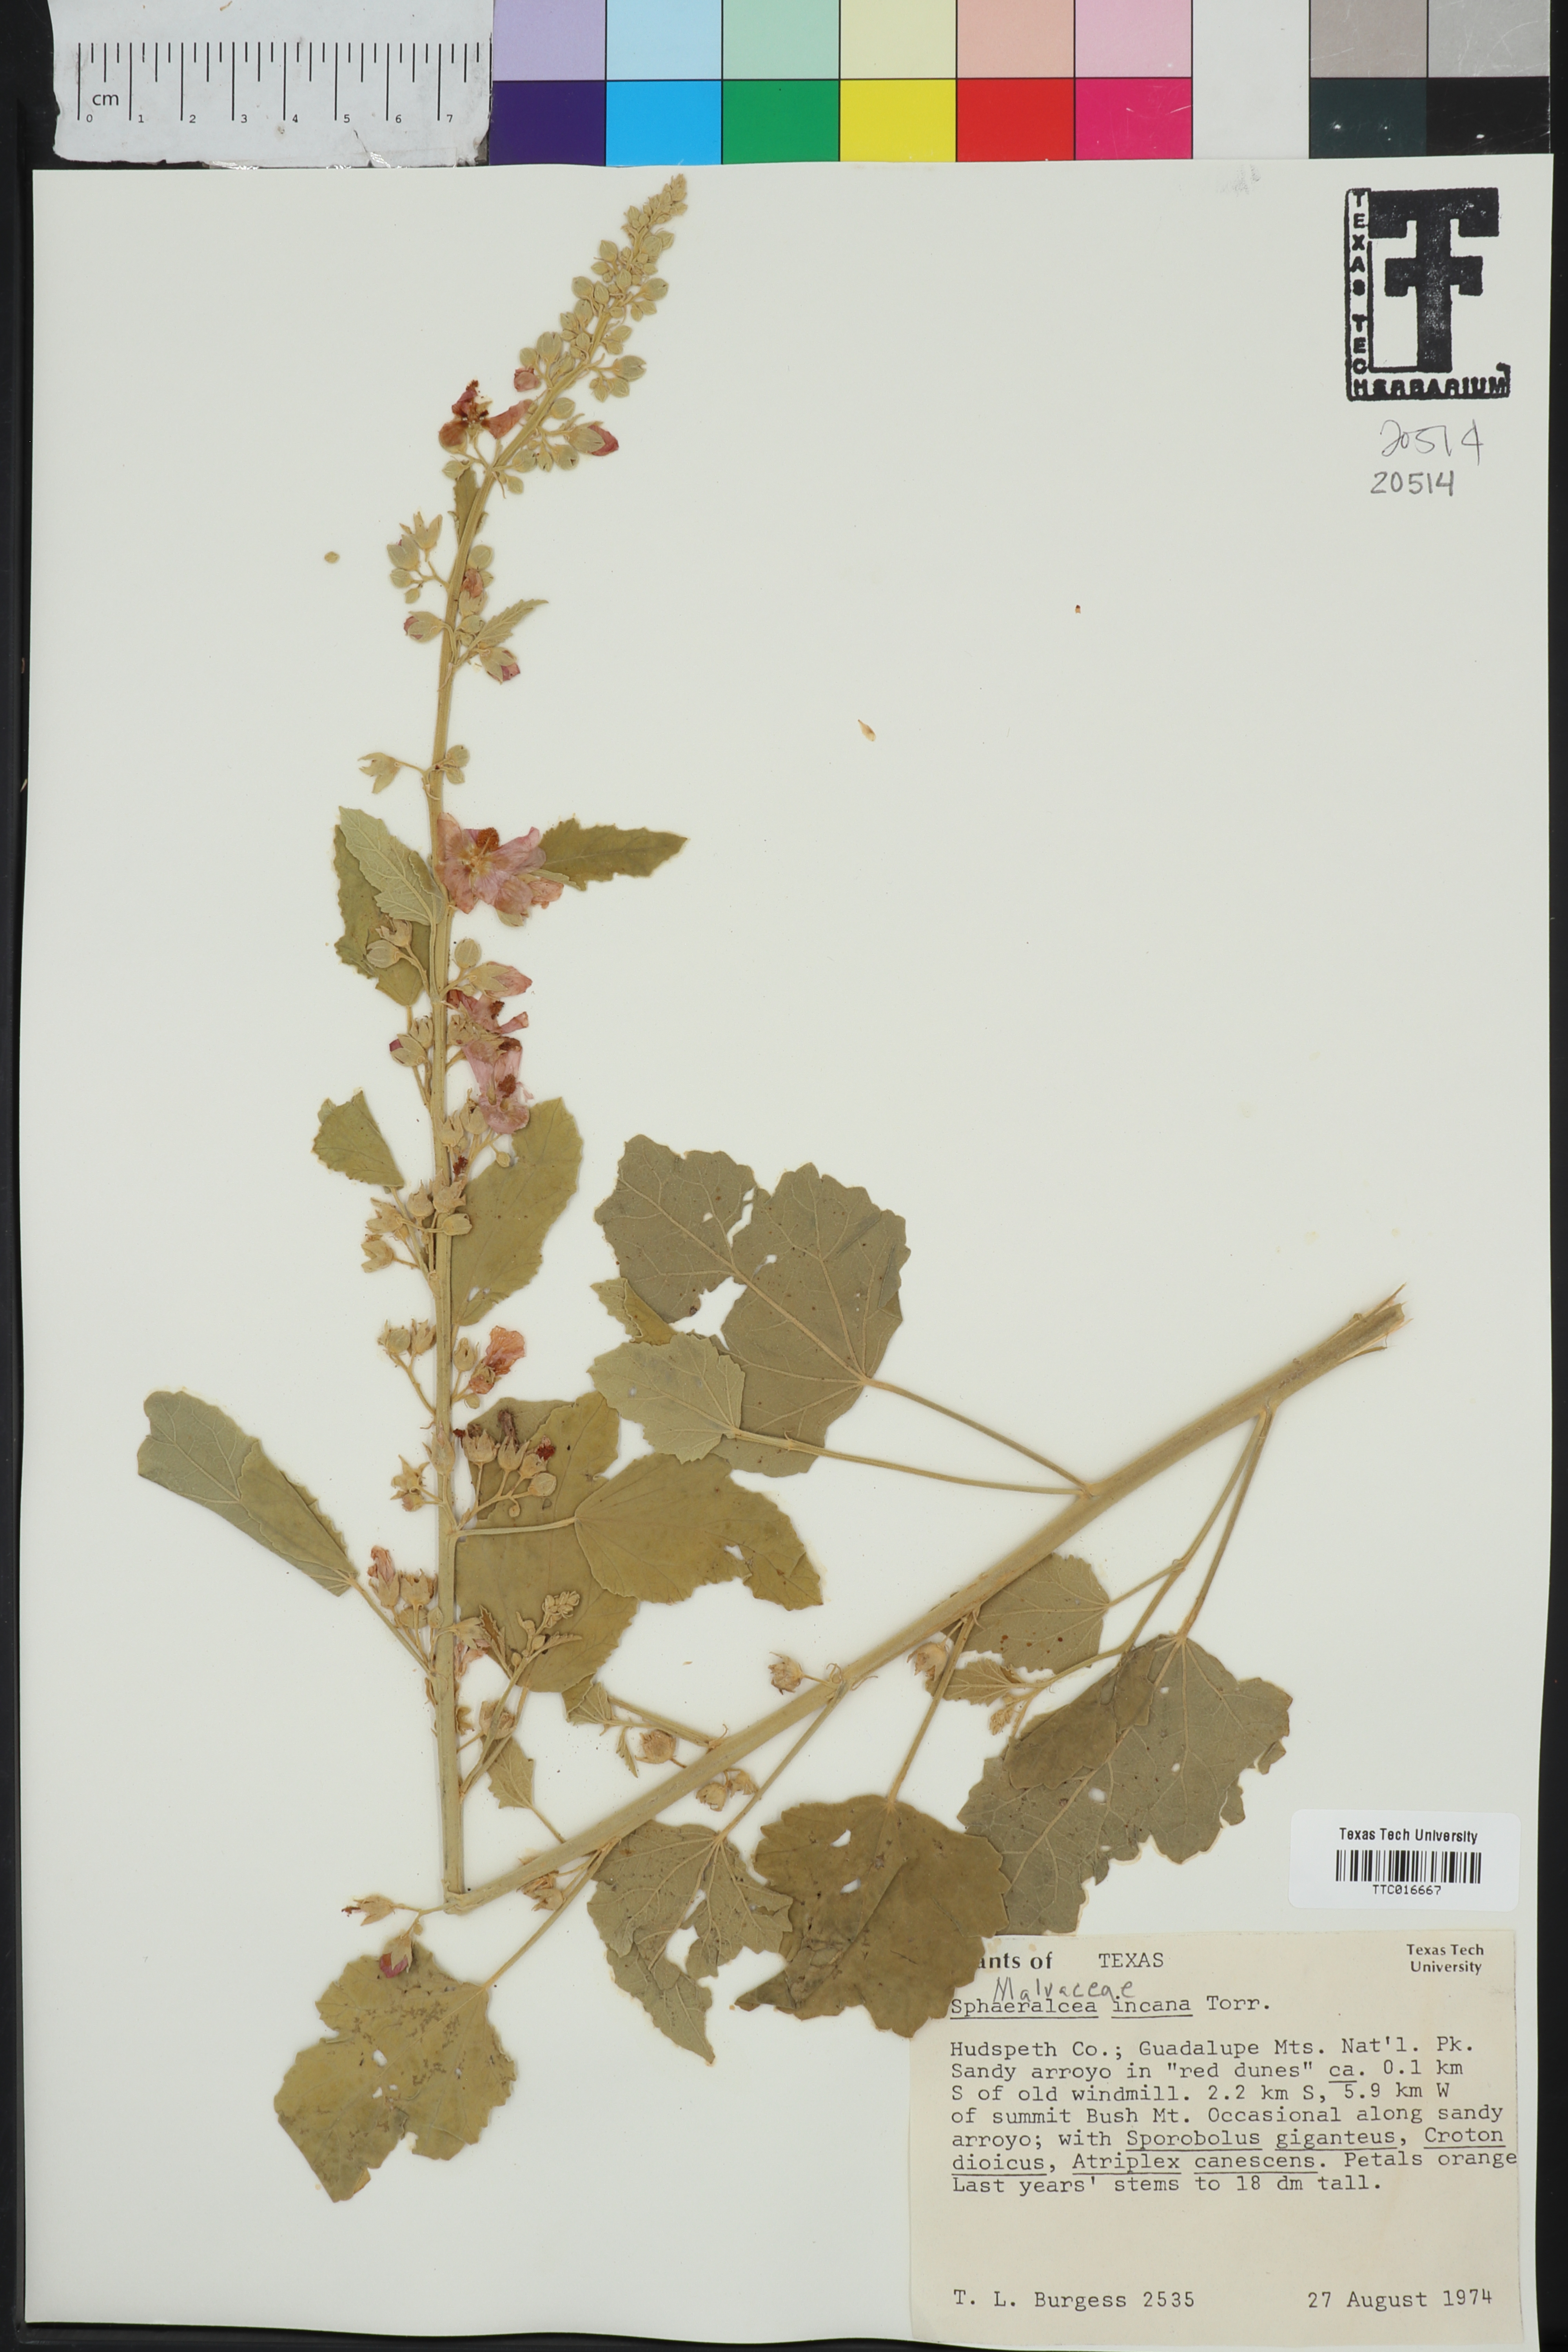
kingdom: Plantae
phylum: Tracheophyta
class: Magnoliopsida
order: Malvales
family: Malvaceae
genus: Sphaeralcea
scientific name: Sphaeralcea incana
